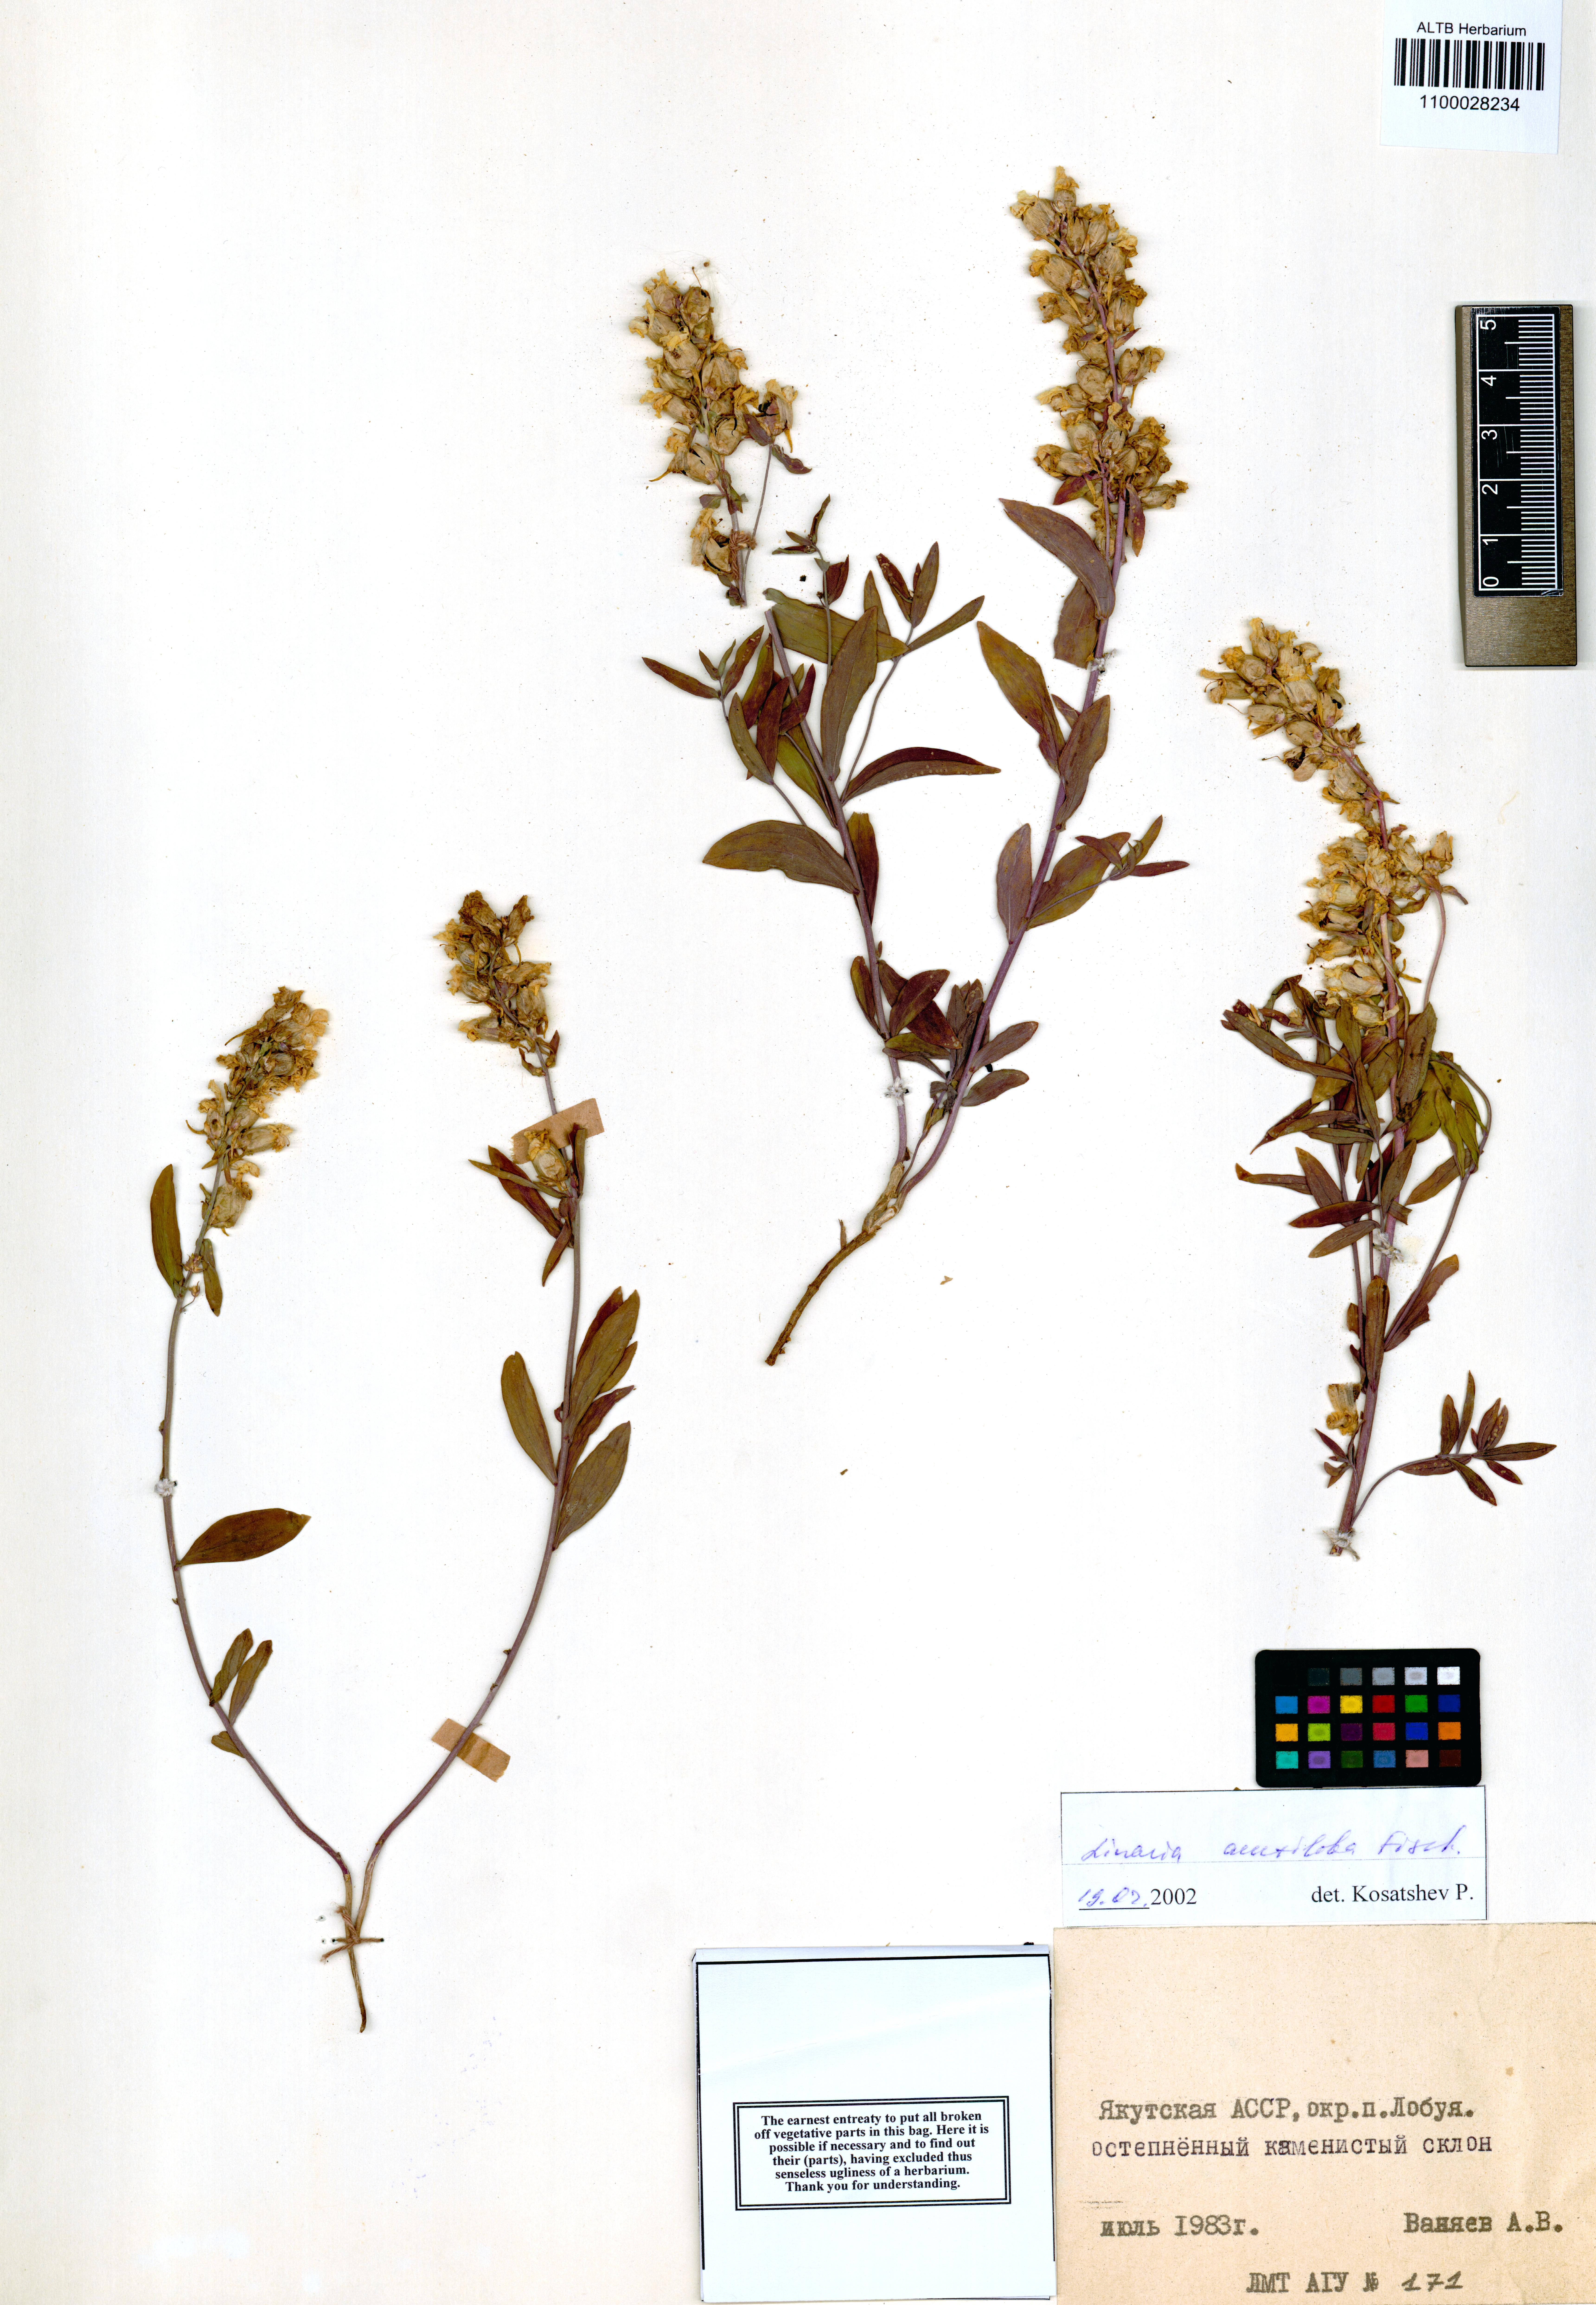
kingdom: Plantae
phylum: Tracheophyta
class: Magnoliopsida
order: Lamiales
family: Plantaginaceae
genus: Linaria
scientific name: Linaria acutiloba
